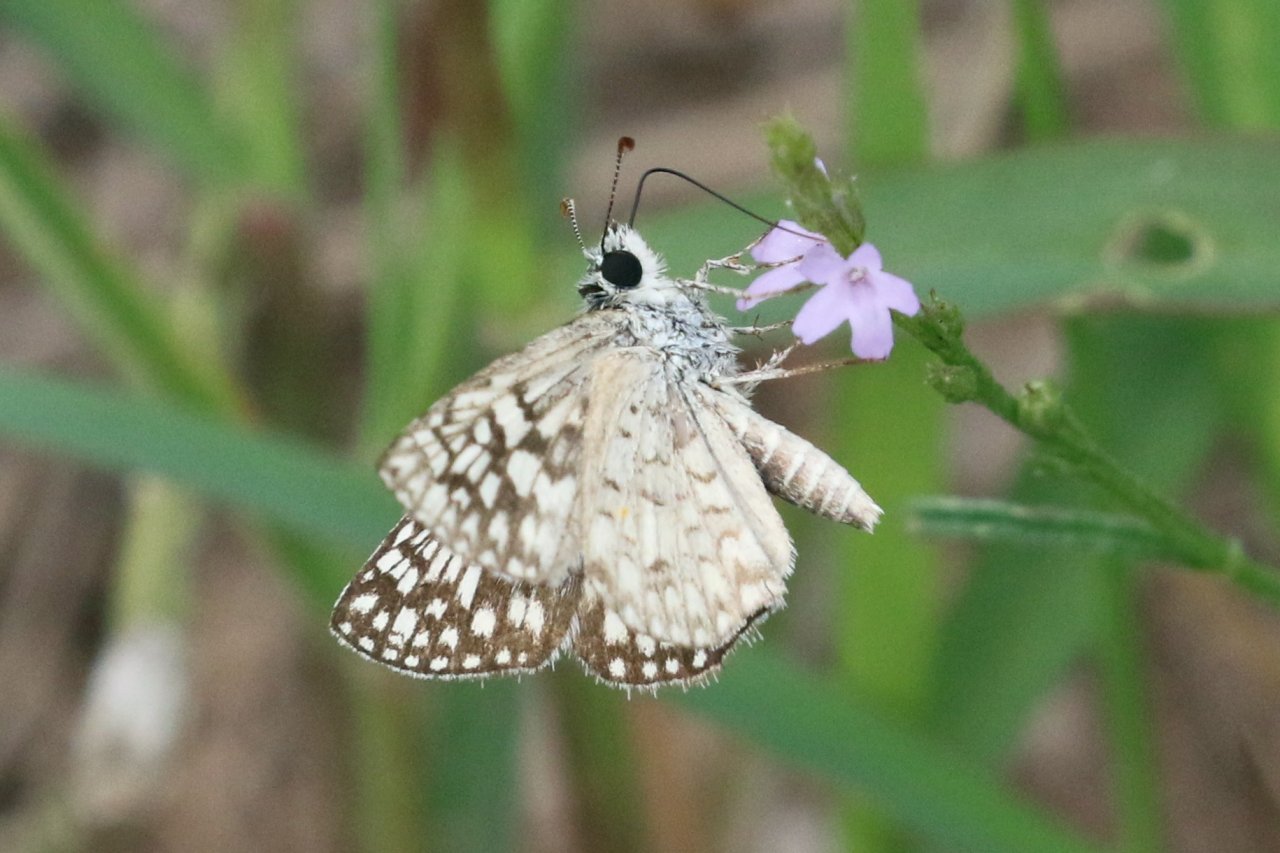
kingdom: Animalia
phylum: Arthropoda
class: Insecta
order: Lepidoptera
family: Hesperiidae
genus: Pyrgus
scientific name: Pyrgus oileus
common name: Desert Checkered-Skipper
